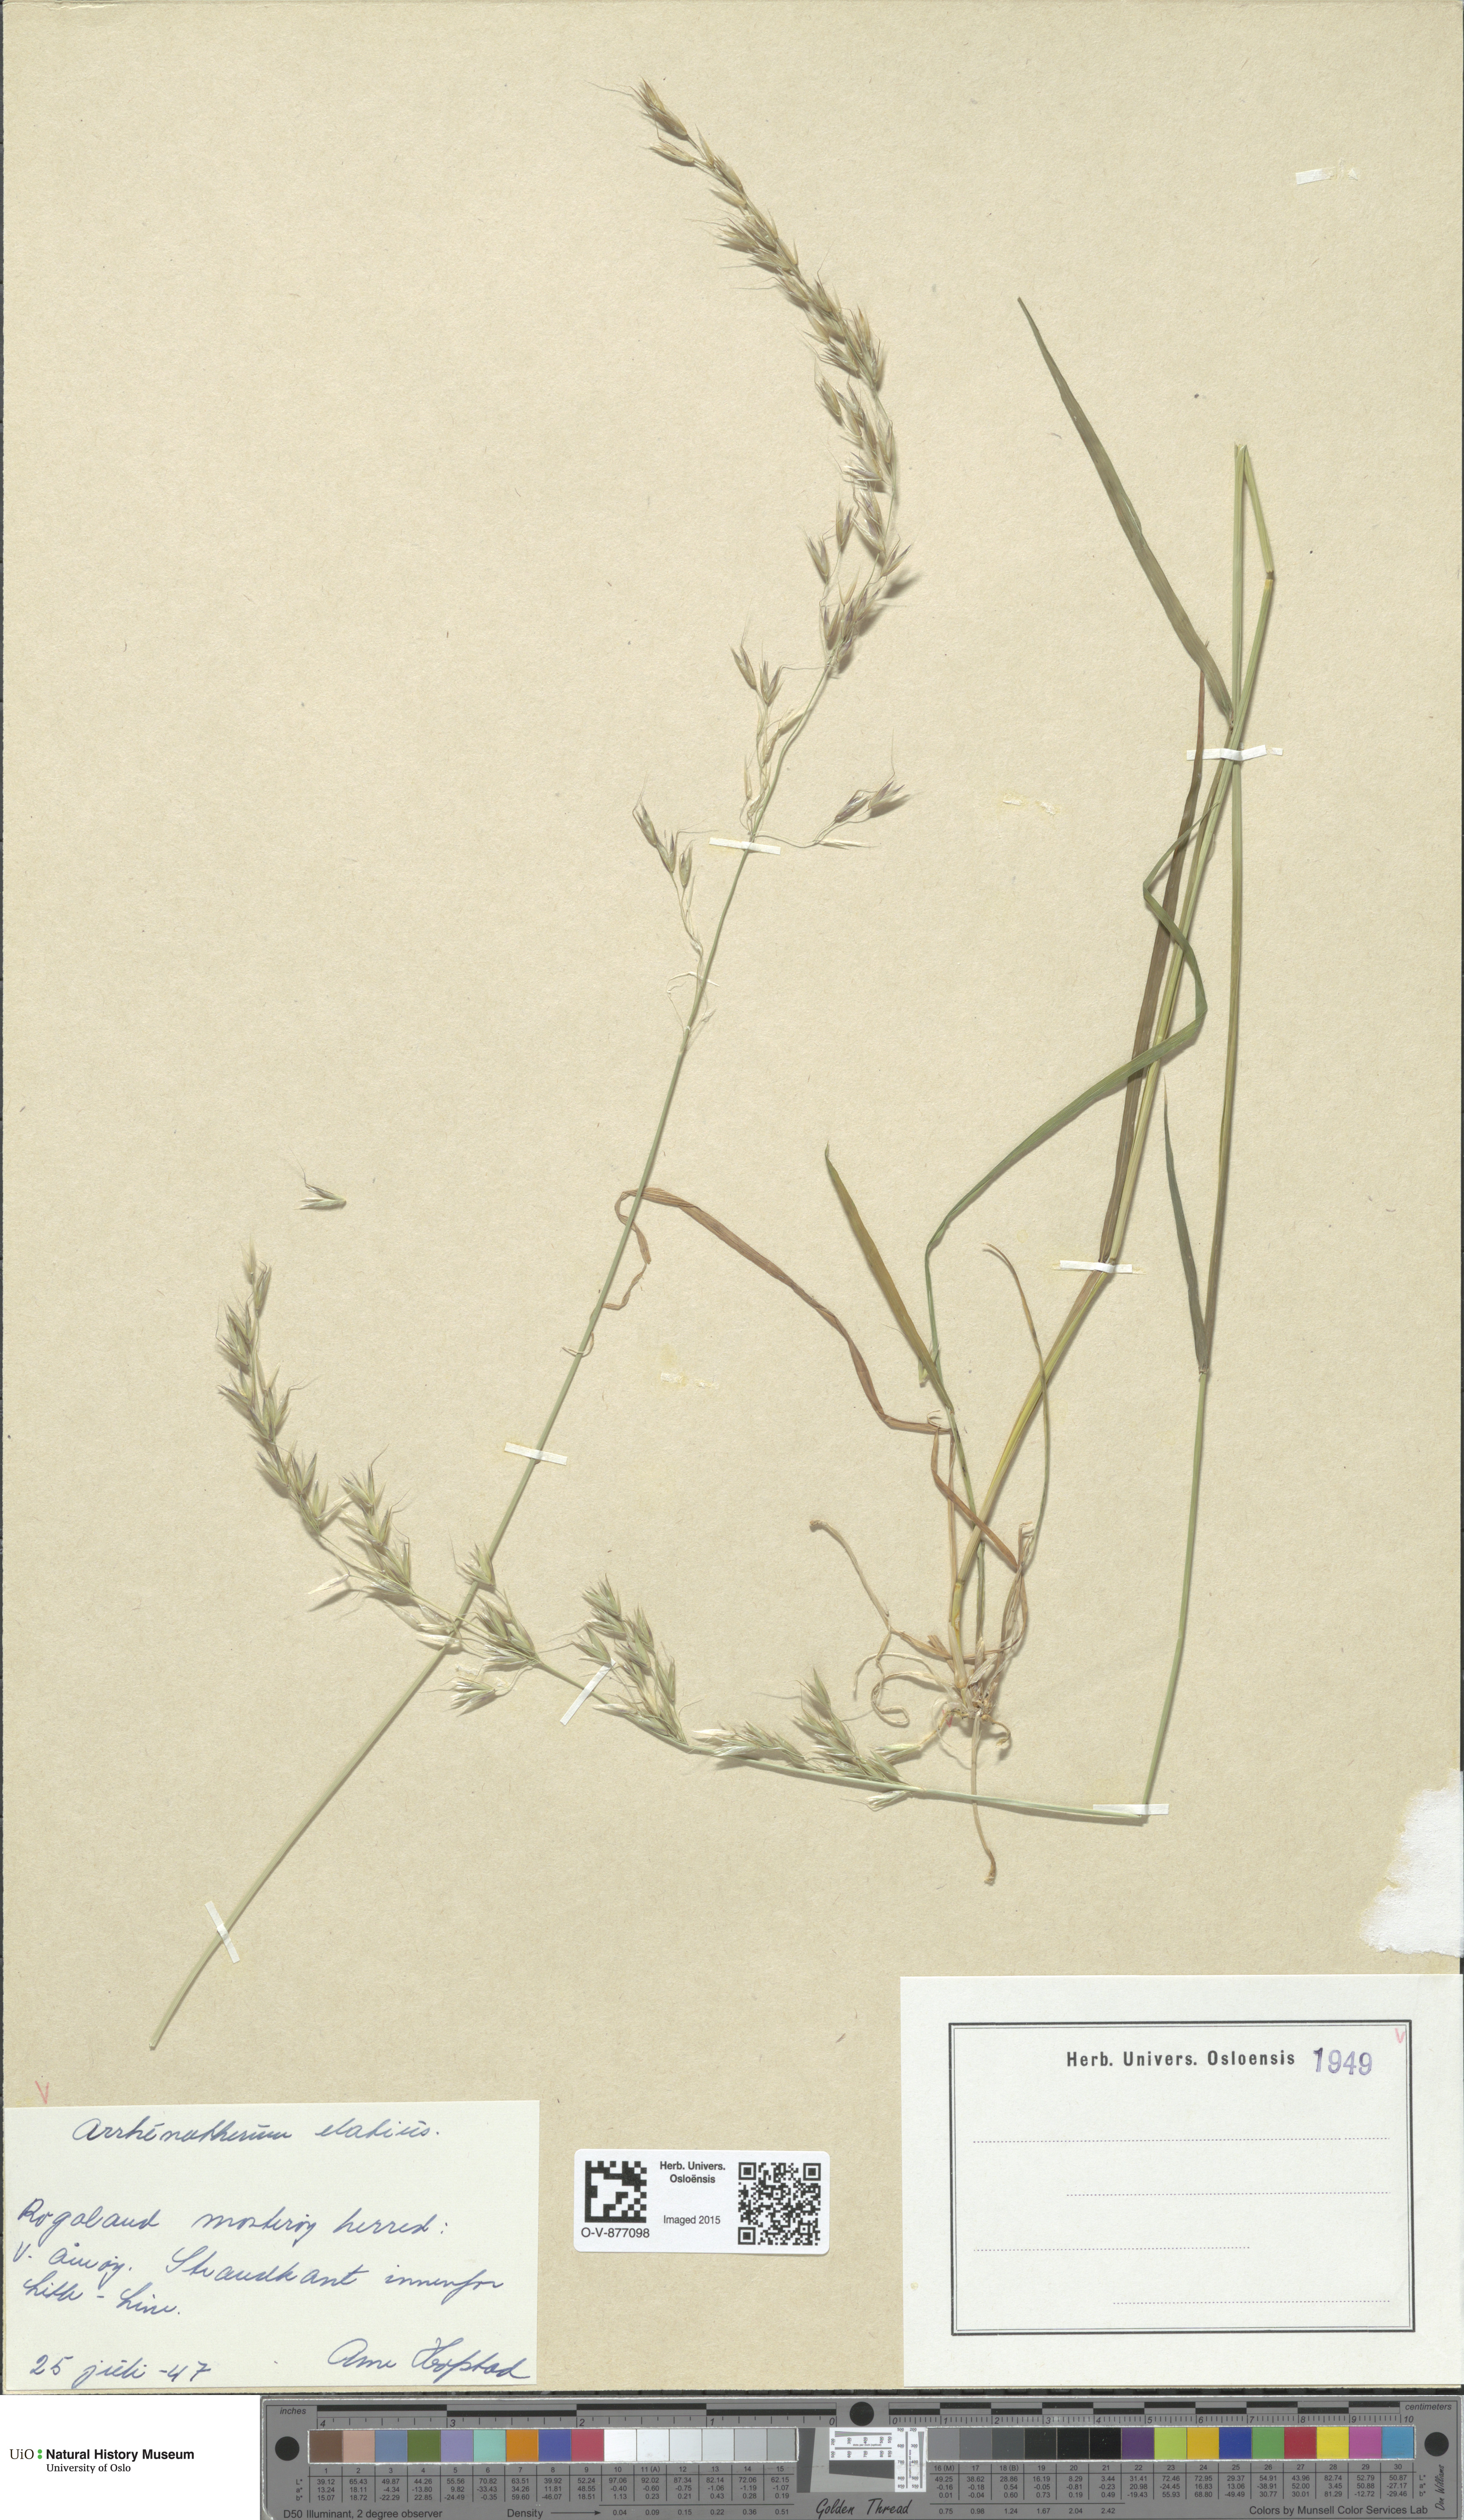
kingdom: Plantae
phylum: Tracheophyta
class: Liliopsida
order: Poales
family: Poaceae
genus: Arrhenatherum
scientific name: Arrhenatherum elatius
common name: Tall oatgrass
